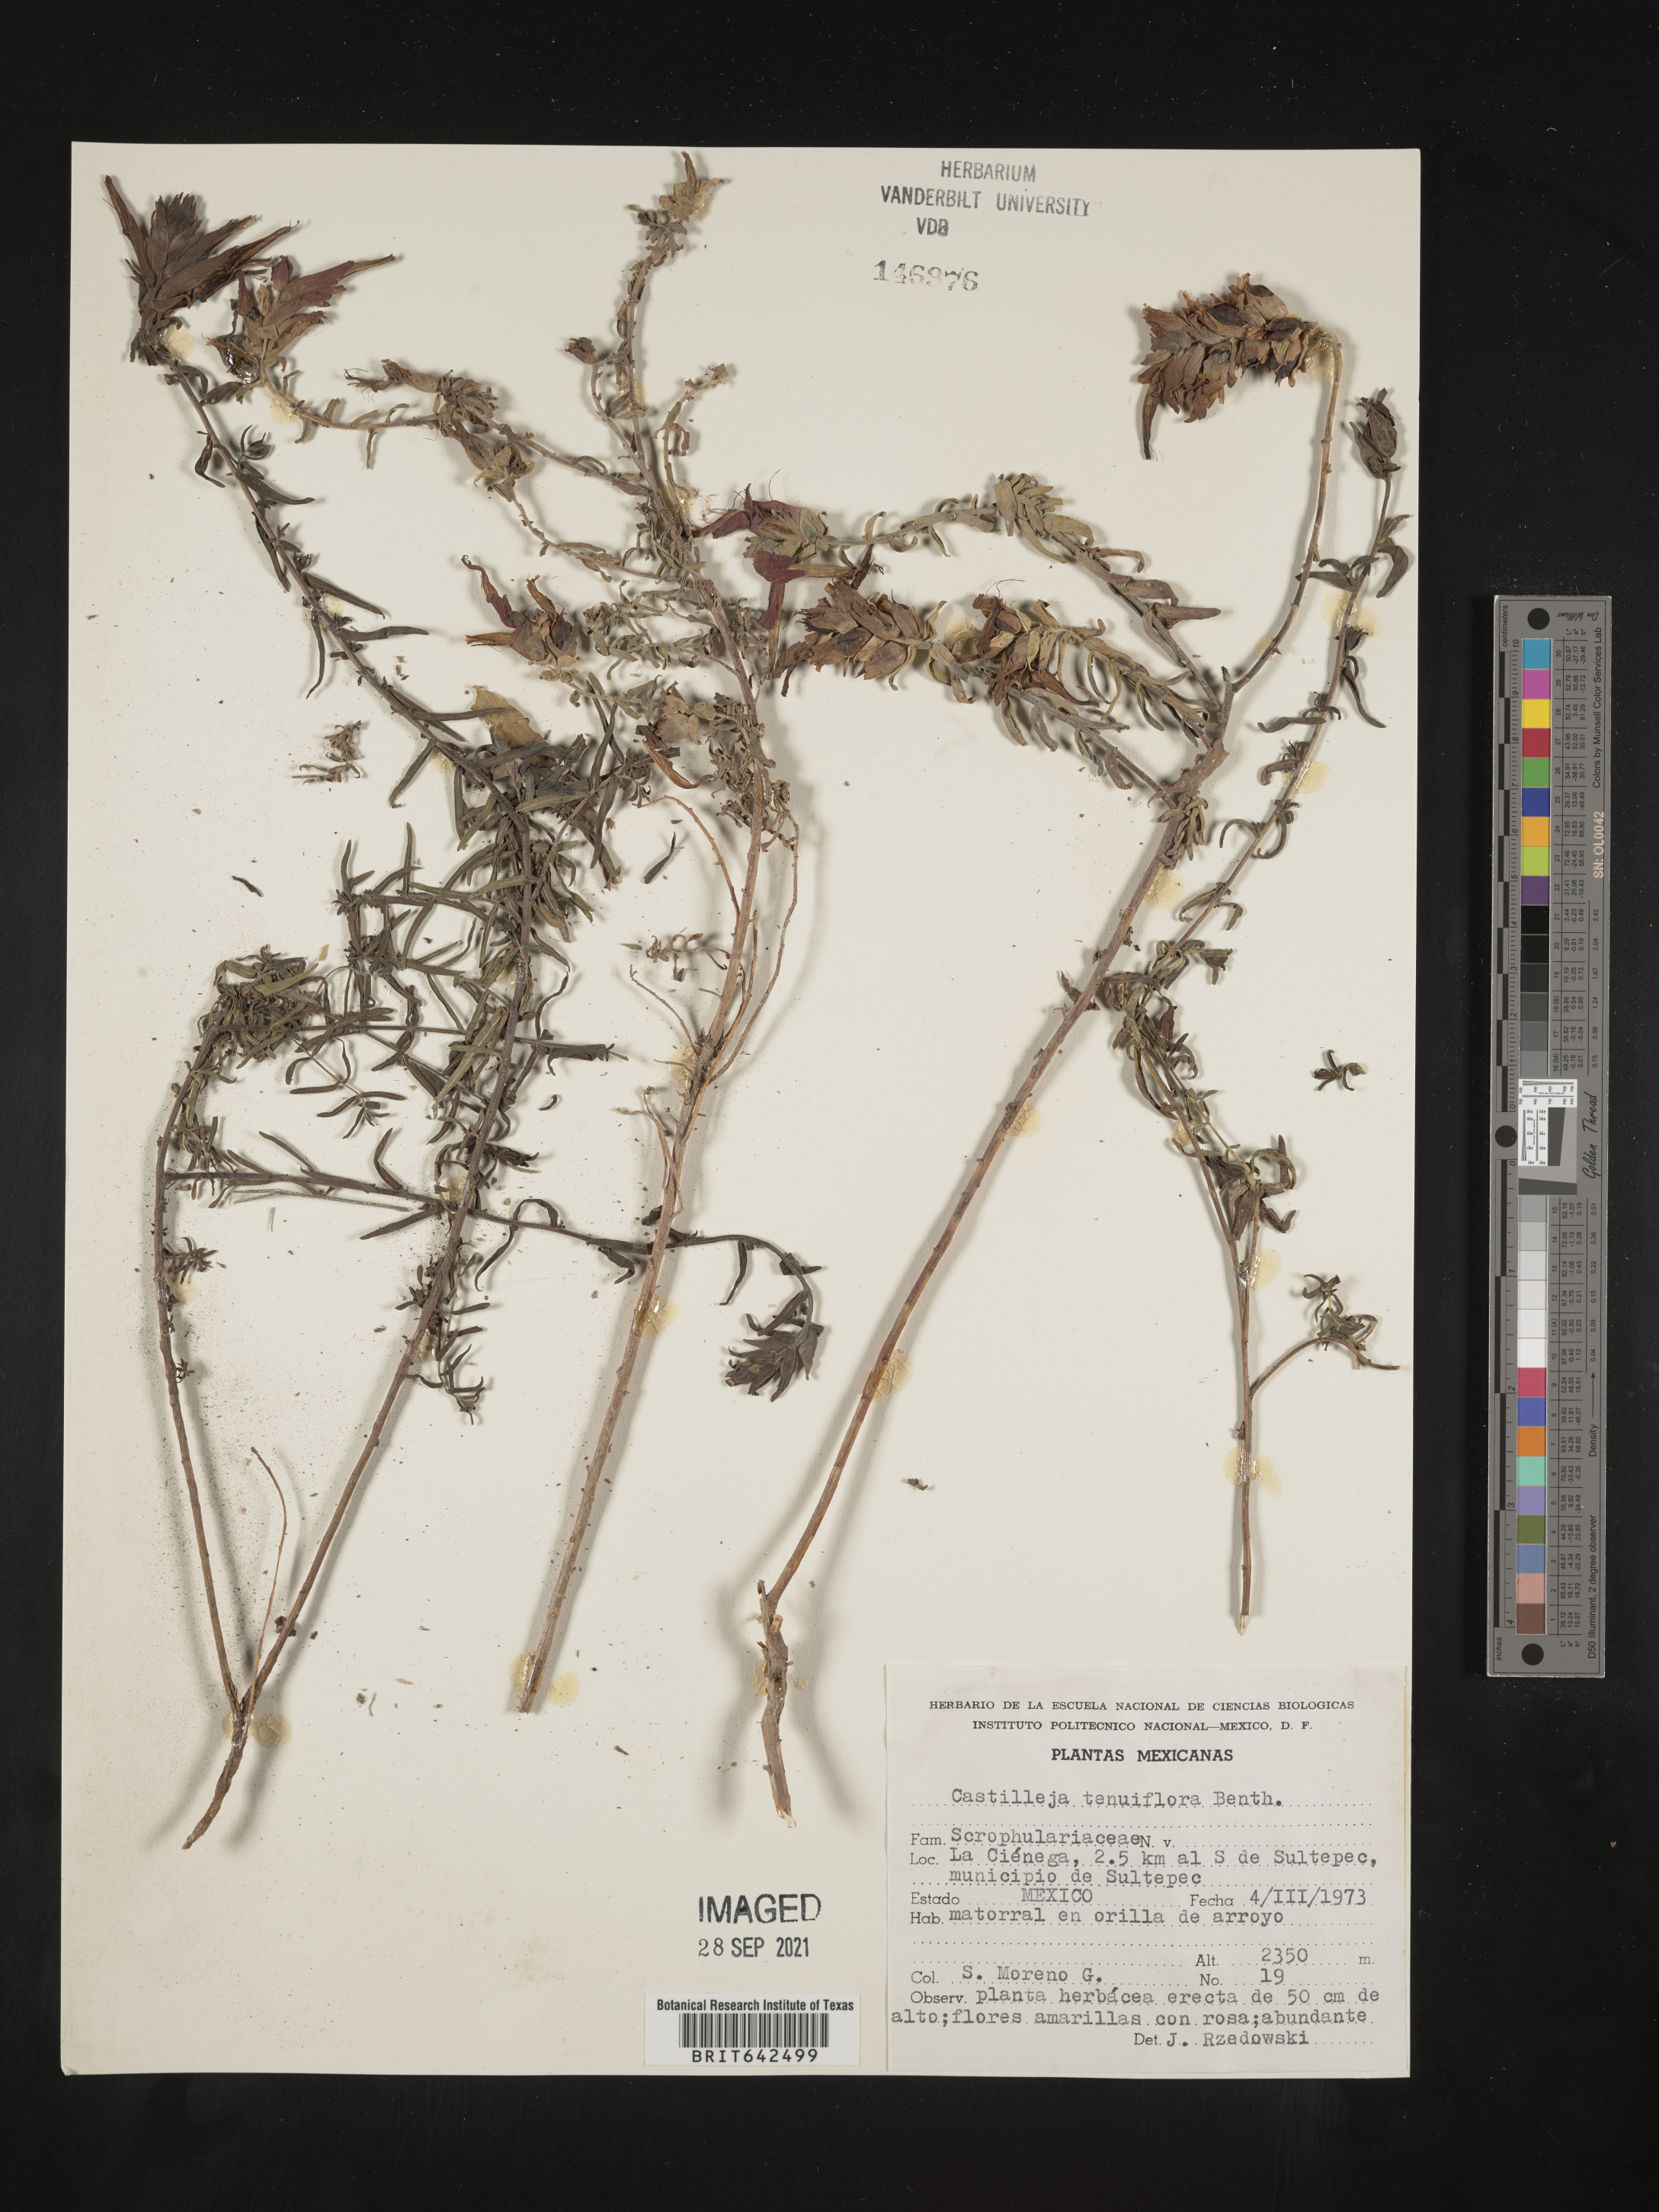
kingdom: Plantae
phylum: Tracheophyta
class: Magnoliopsida
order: Lamiales
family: Orobanchaceae
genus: Castilleja
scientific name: Castilleja
